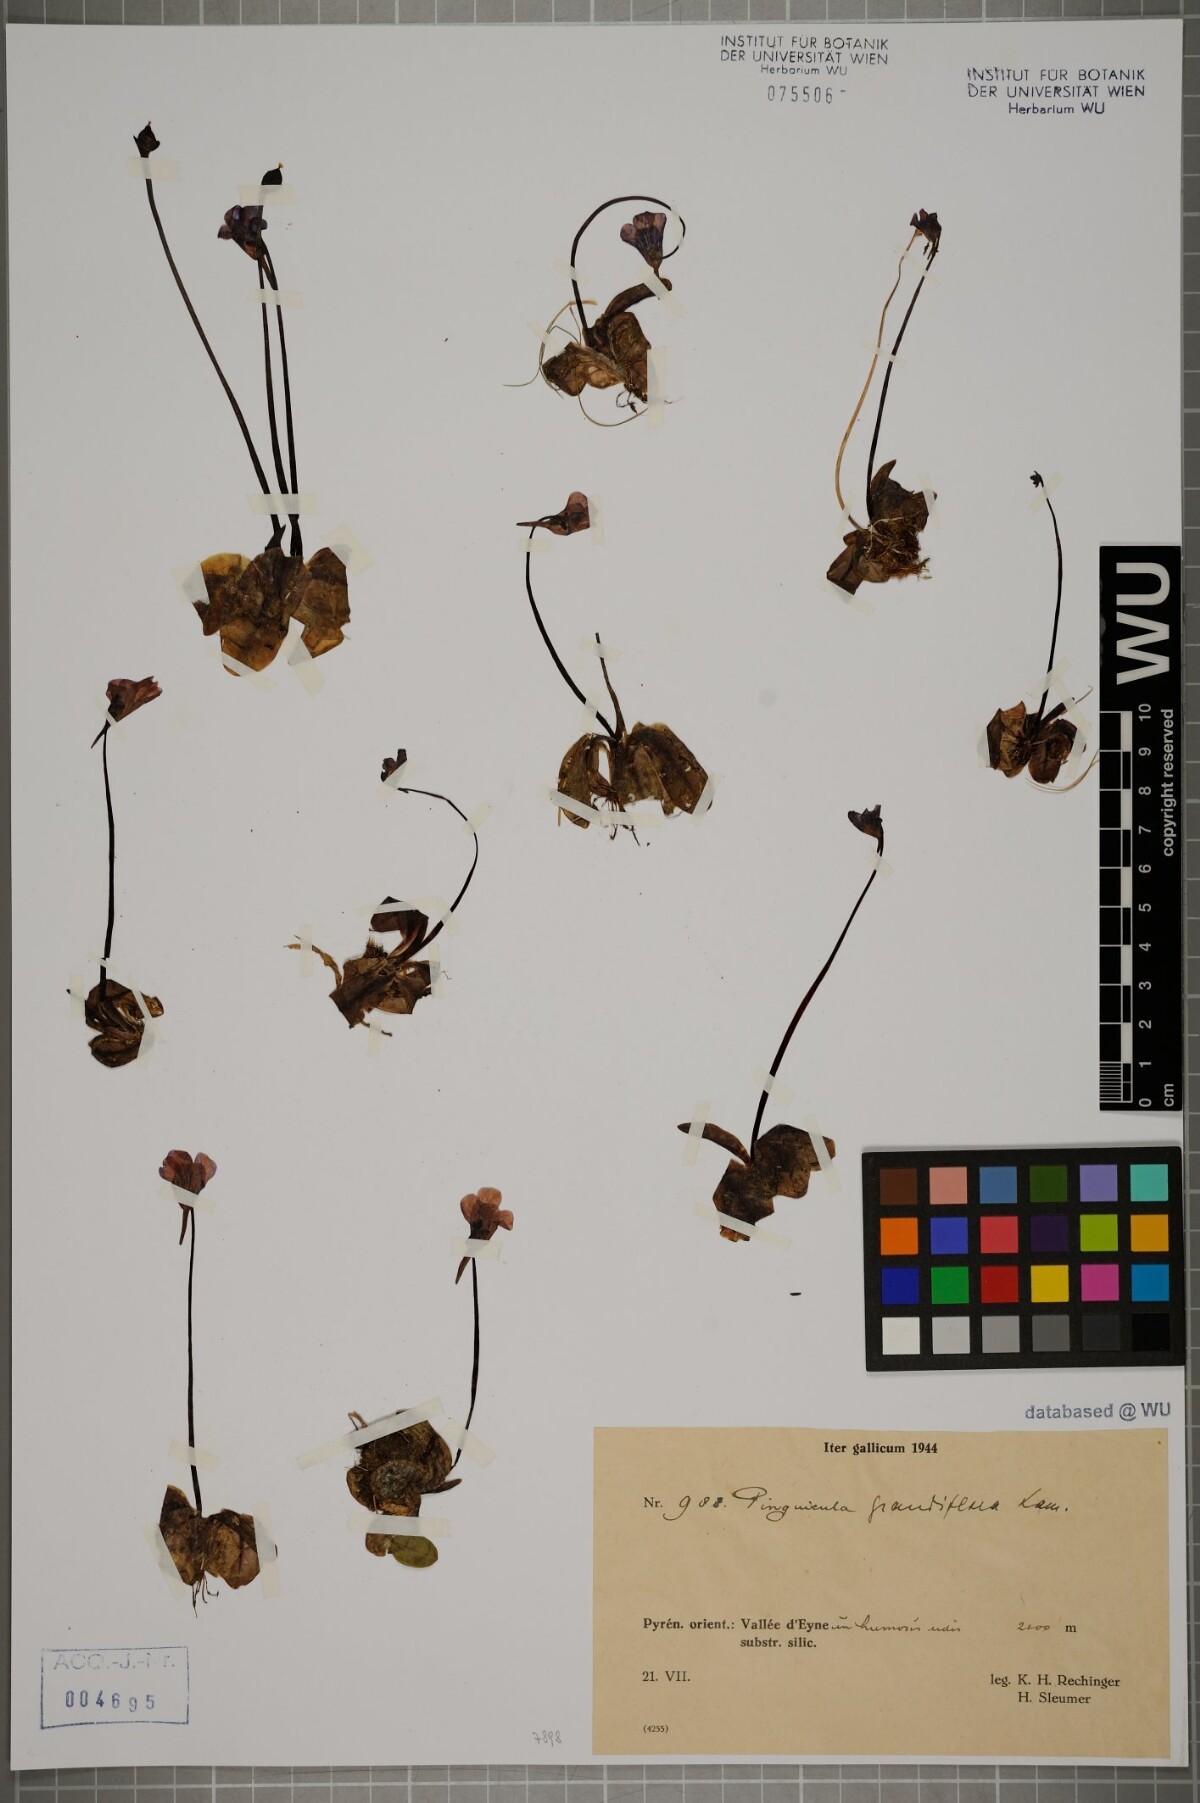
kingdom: Plantae
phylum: Tracheophyta
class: Magnoliopsida
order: Lamiales
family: Lentibulariaceae
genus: Pinguicula
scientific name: Pinguicula grandiflora
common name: Large-flowered butterwort
